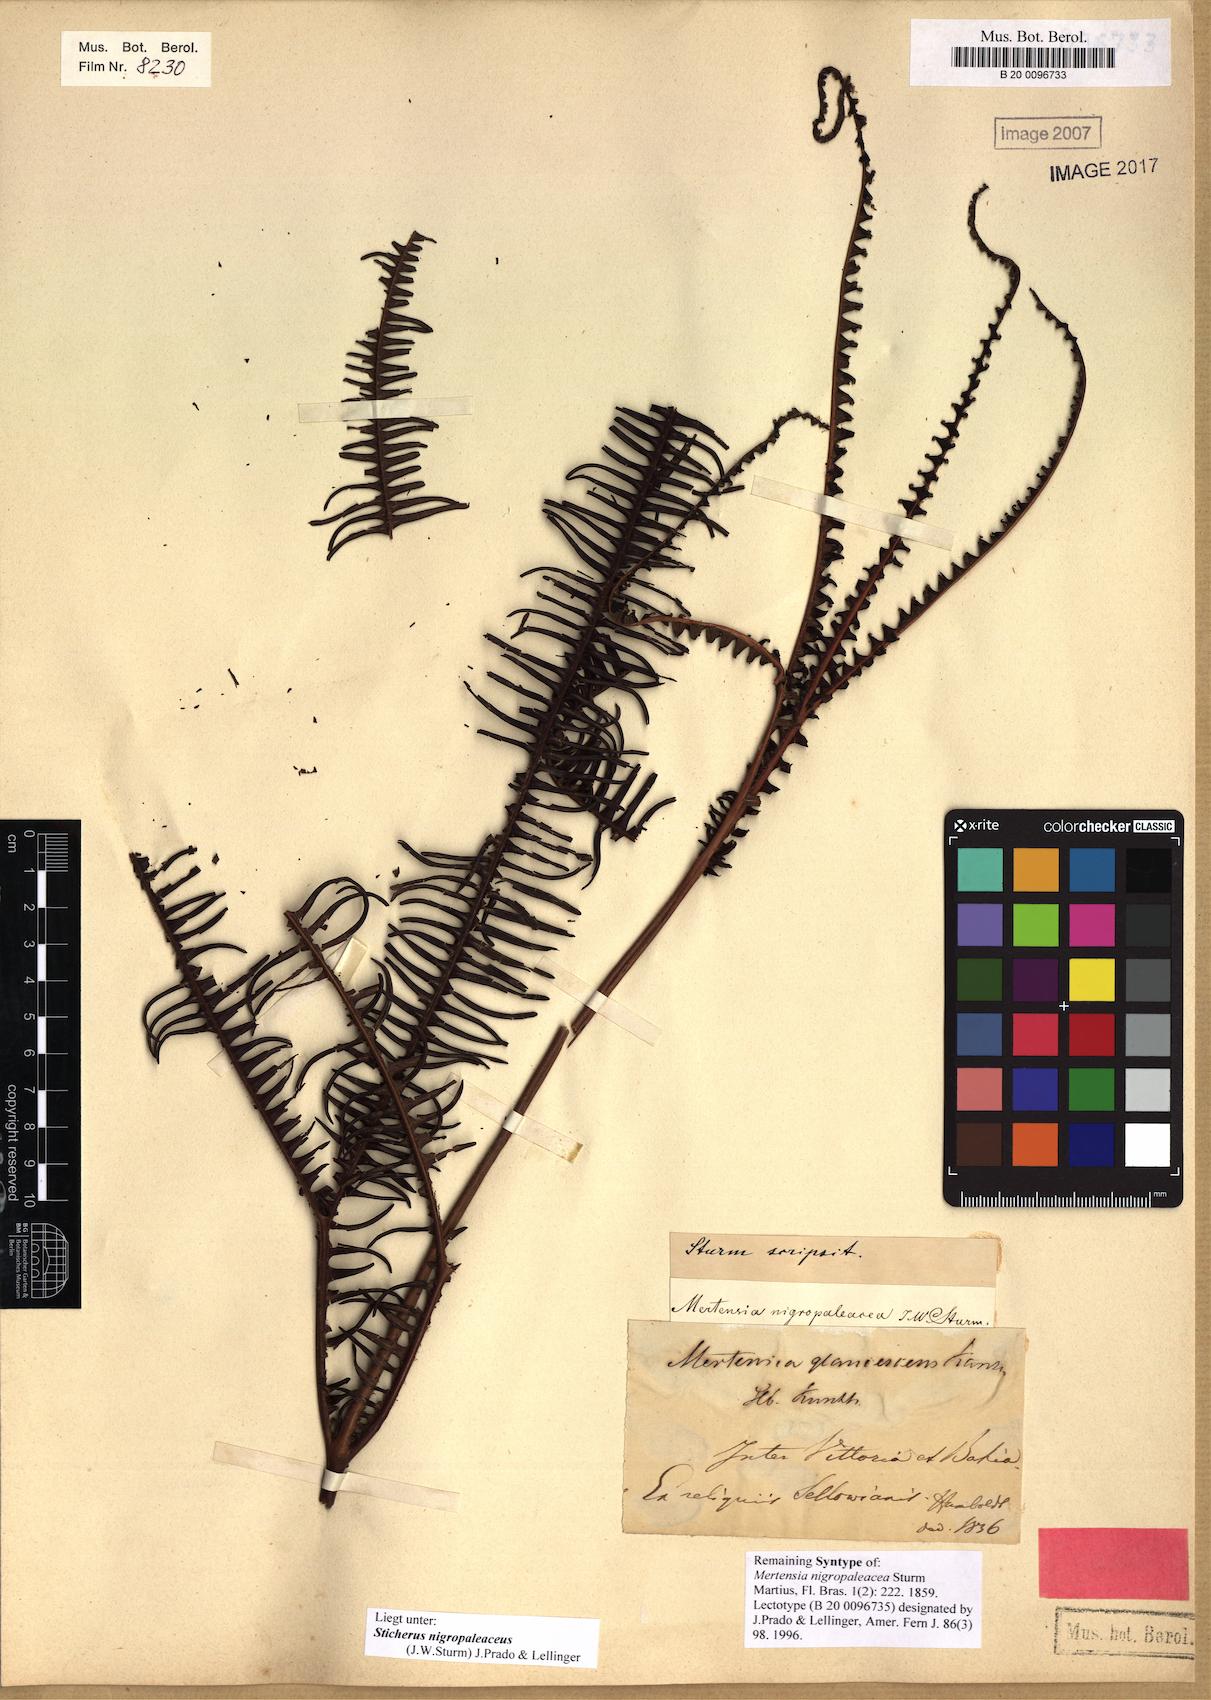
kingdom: Plantae
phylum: Tracheophyta
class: Polypodiopsida
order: Gleicheniales
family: Gleicheniaceae
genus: Sticherus
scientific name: Sticherus nigropaleaceus
